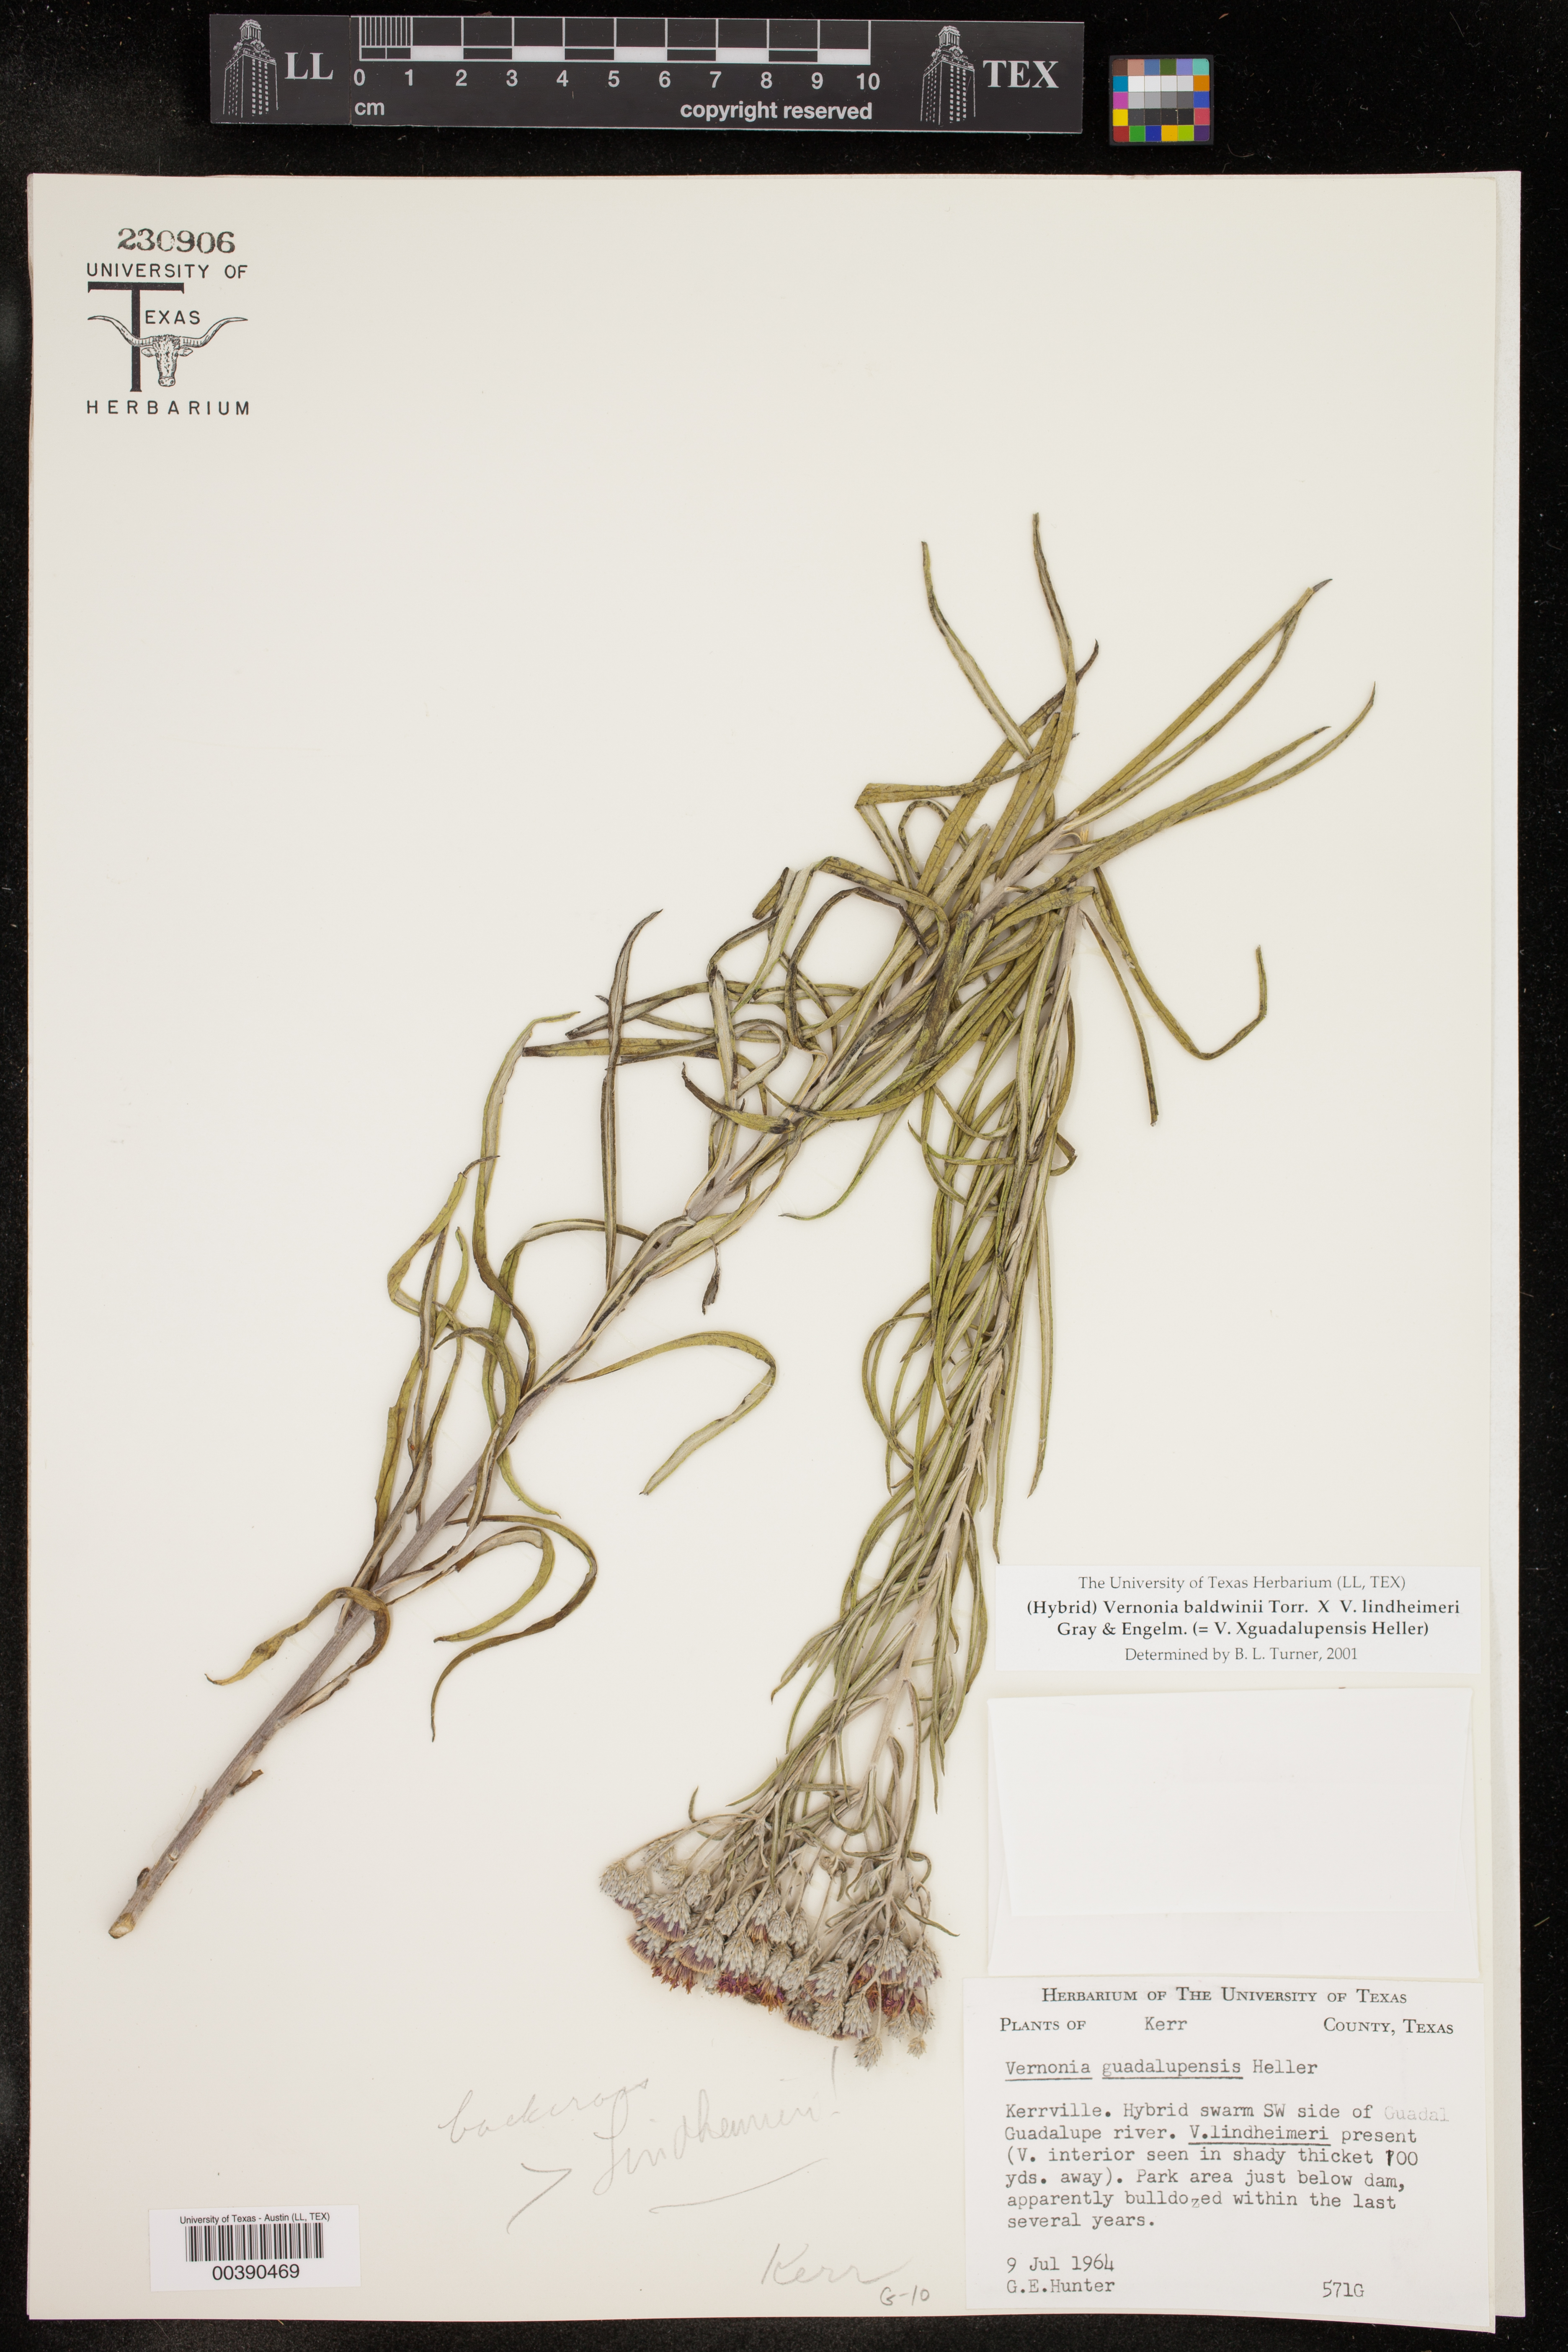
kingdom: Plantae
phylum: Tracheophyta
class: Magnoliopsida
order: Asterales
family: Asteraceae
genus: Vernonia
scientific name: Vernonia
